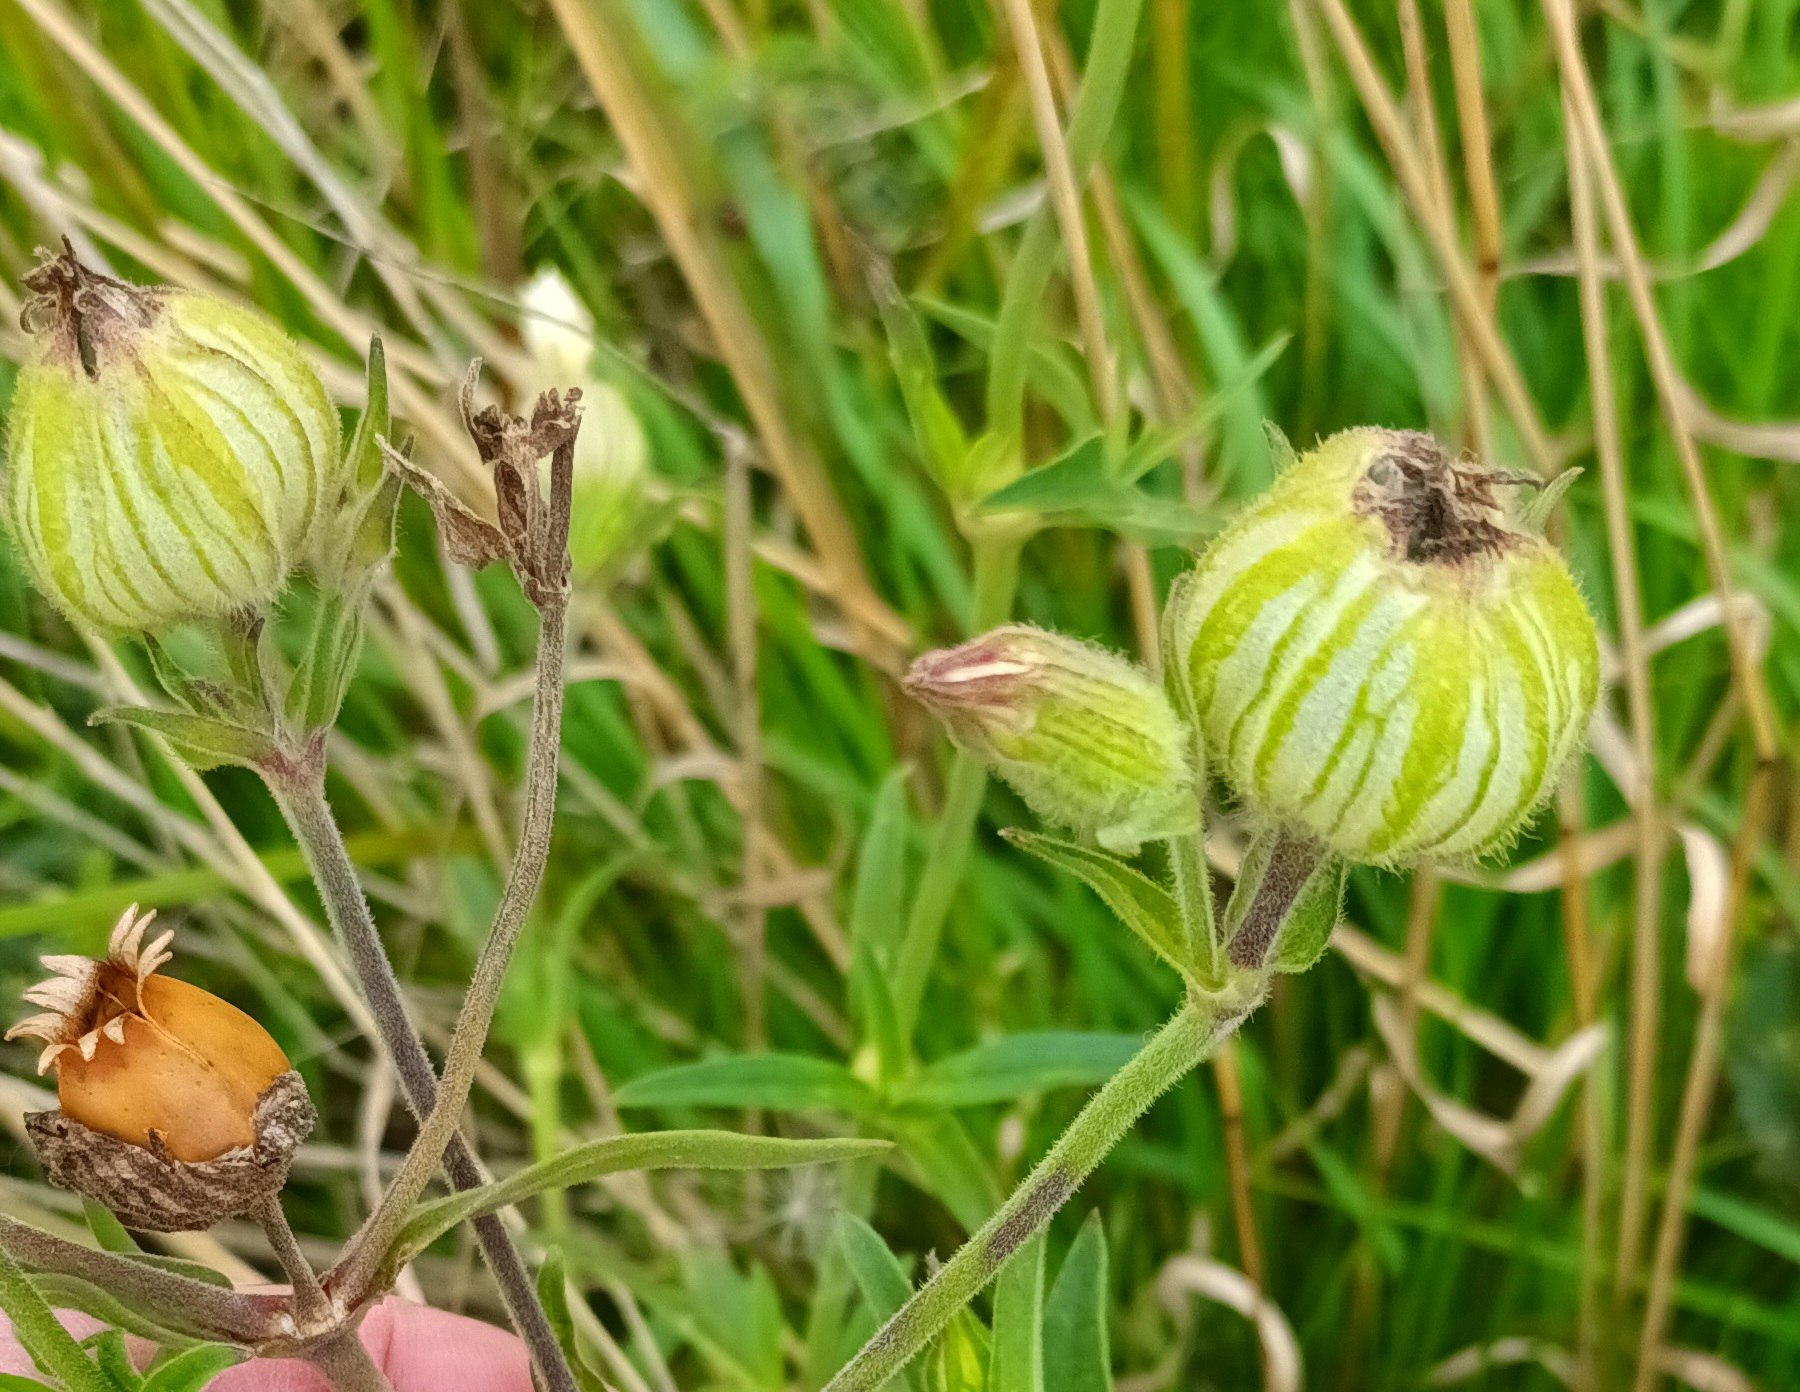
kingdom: Plantae
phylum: Tracheophyta
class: Magnoliopsida
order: Caryophyllales
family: Caryophyllaceae
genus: Silene
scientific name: Silene latifolia
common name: Aftenpragtstjerne
